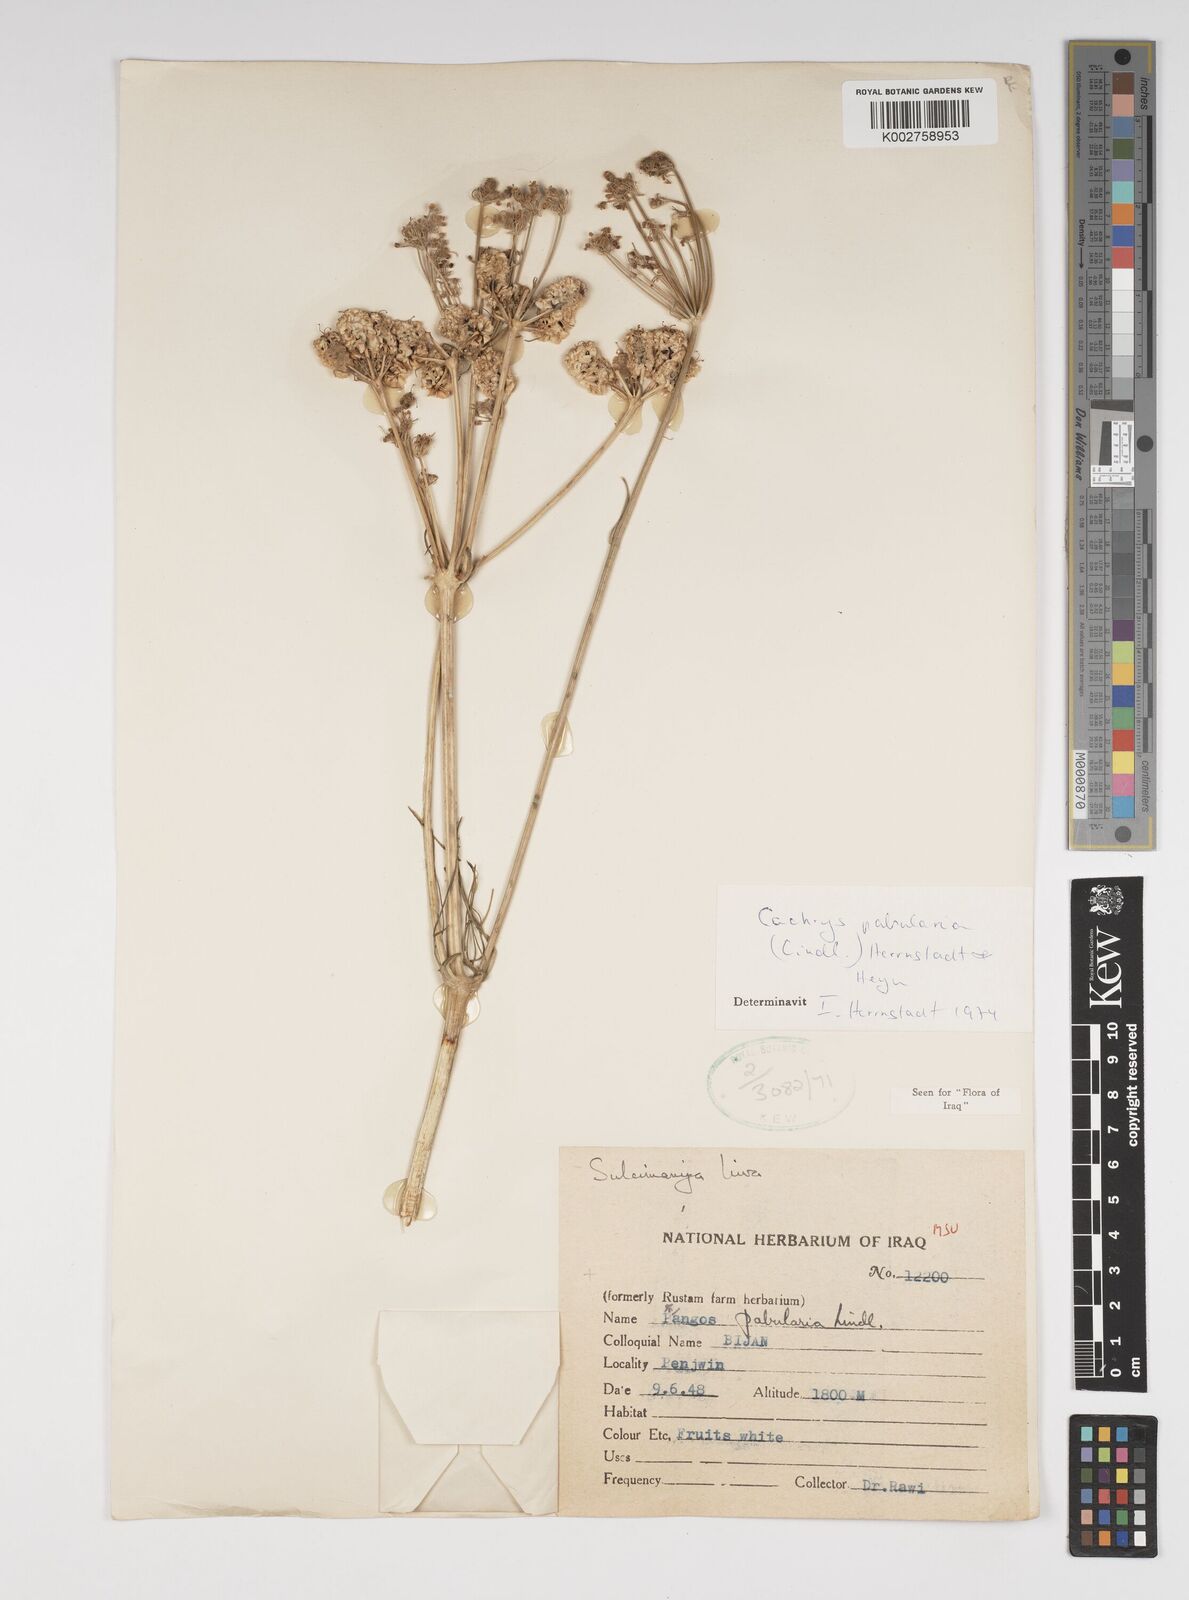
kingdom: Plantae
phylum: Tracheophyta
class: Magnoliopsida
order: Apiales
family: Apiaceae
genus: Prangos
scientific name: Prangos pabularia
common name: Yugan
